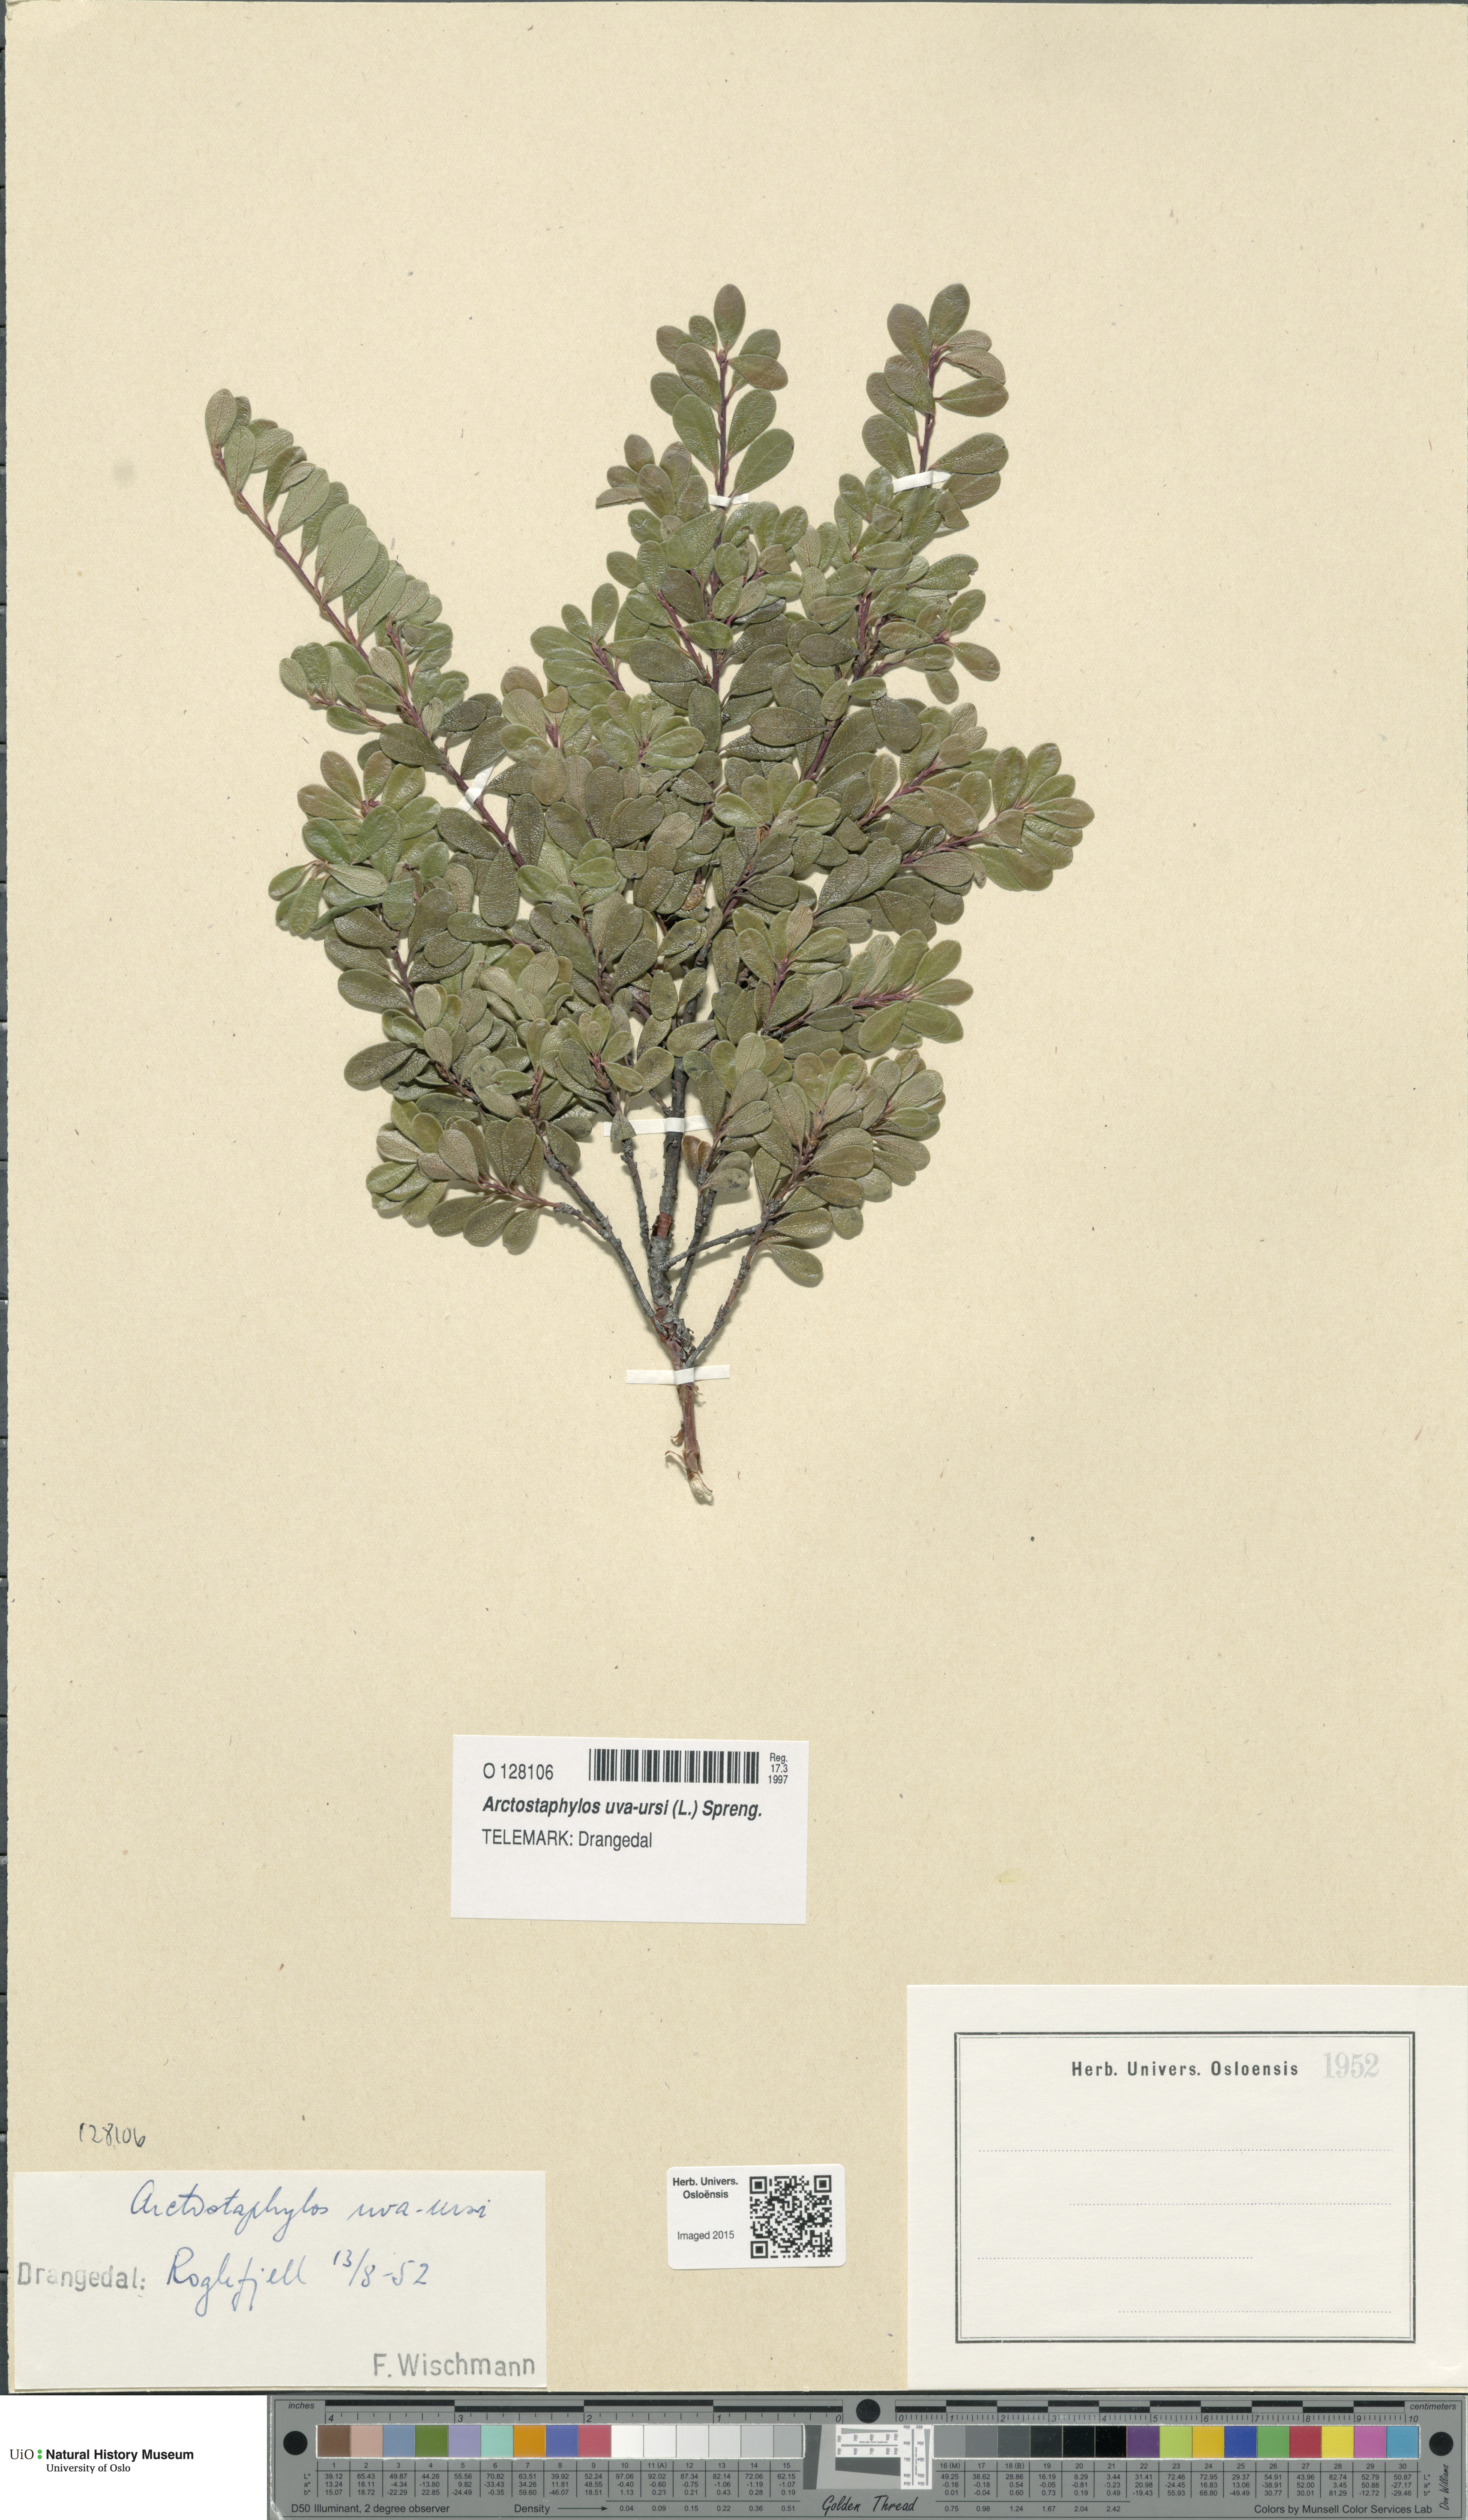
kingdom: Plantae
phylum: Tracheophyta
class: Magnoliopsida
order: Ericales
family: Ericaceae
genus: Arctostaphylos
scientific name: Arctostaphylos uva-ursi
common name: Bearberry
